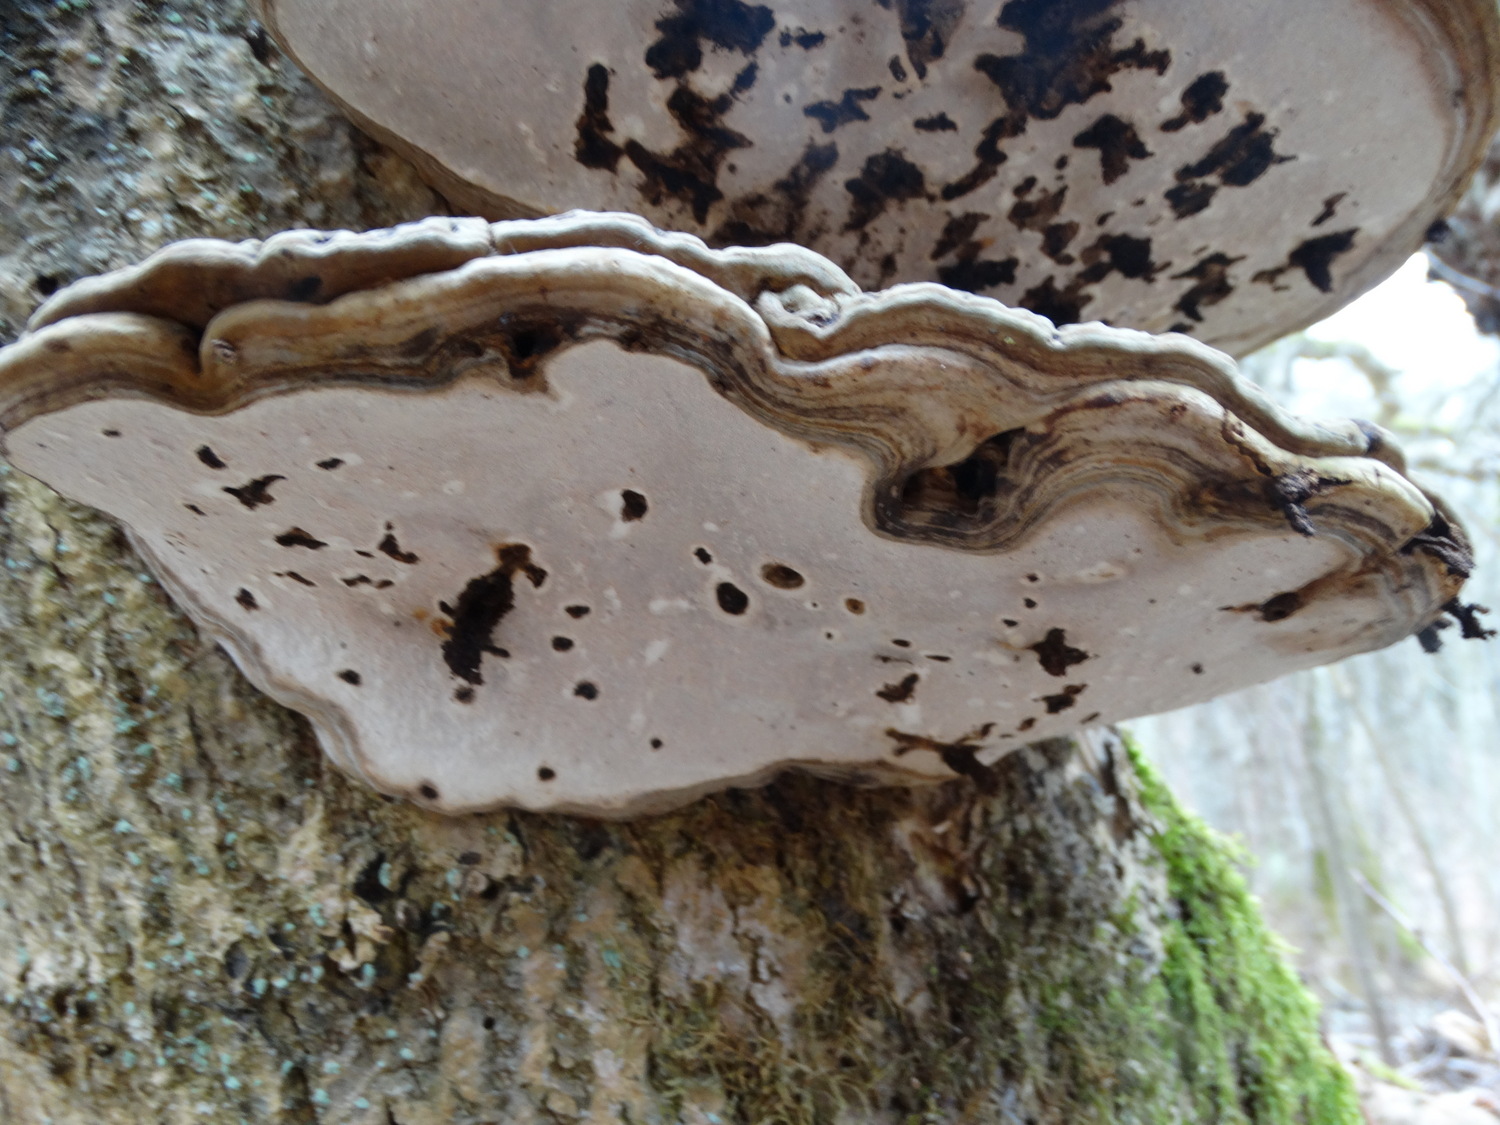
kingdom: Fungi
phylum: Basidiomycota
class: Agaricomycetes
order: Polyporales
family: Polyporaceae
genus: Ganoderma
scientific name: Ganoderma applanatum
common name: flad lakporesvamp
